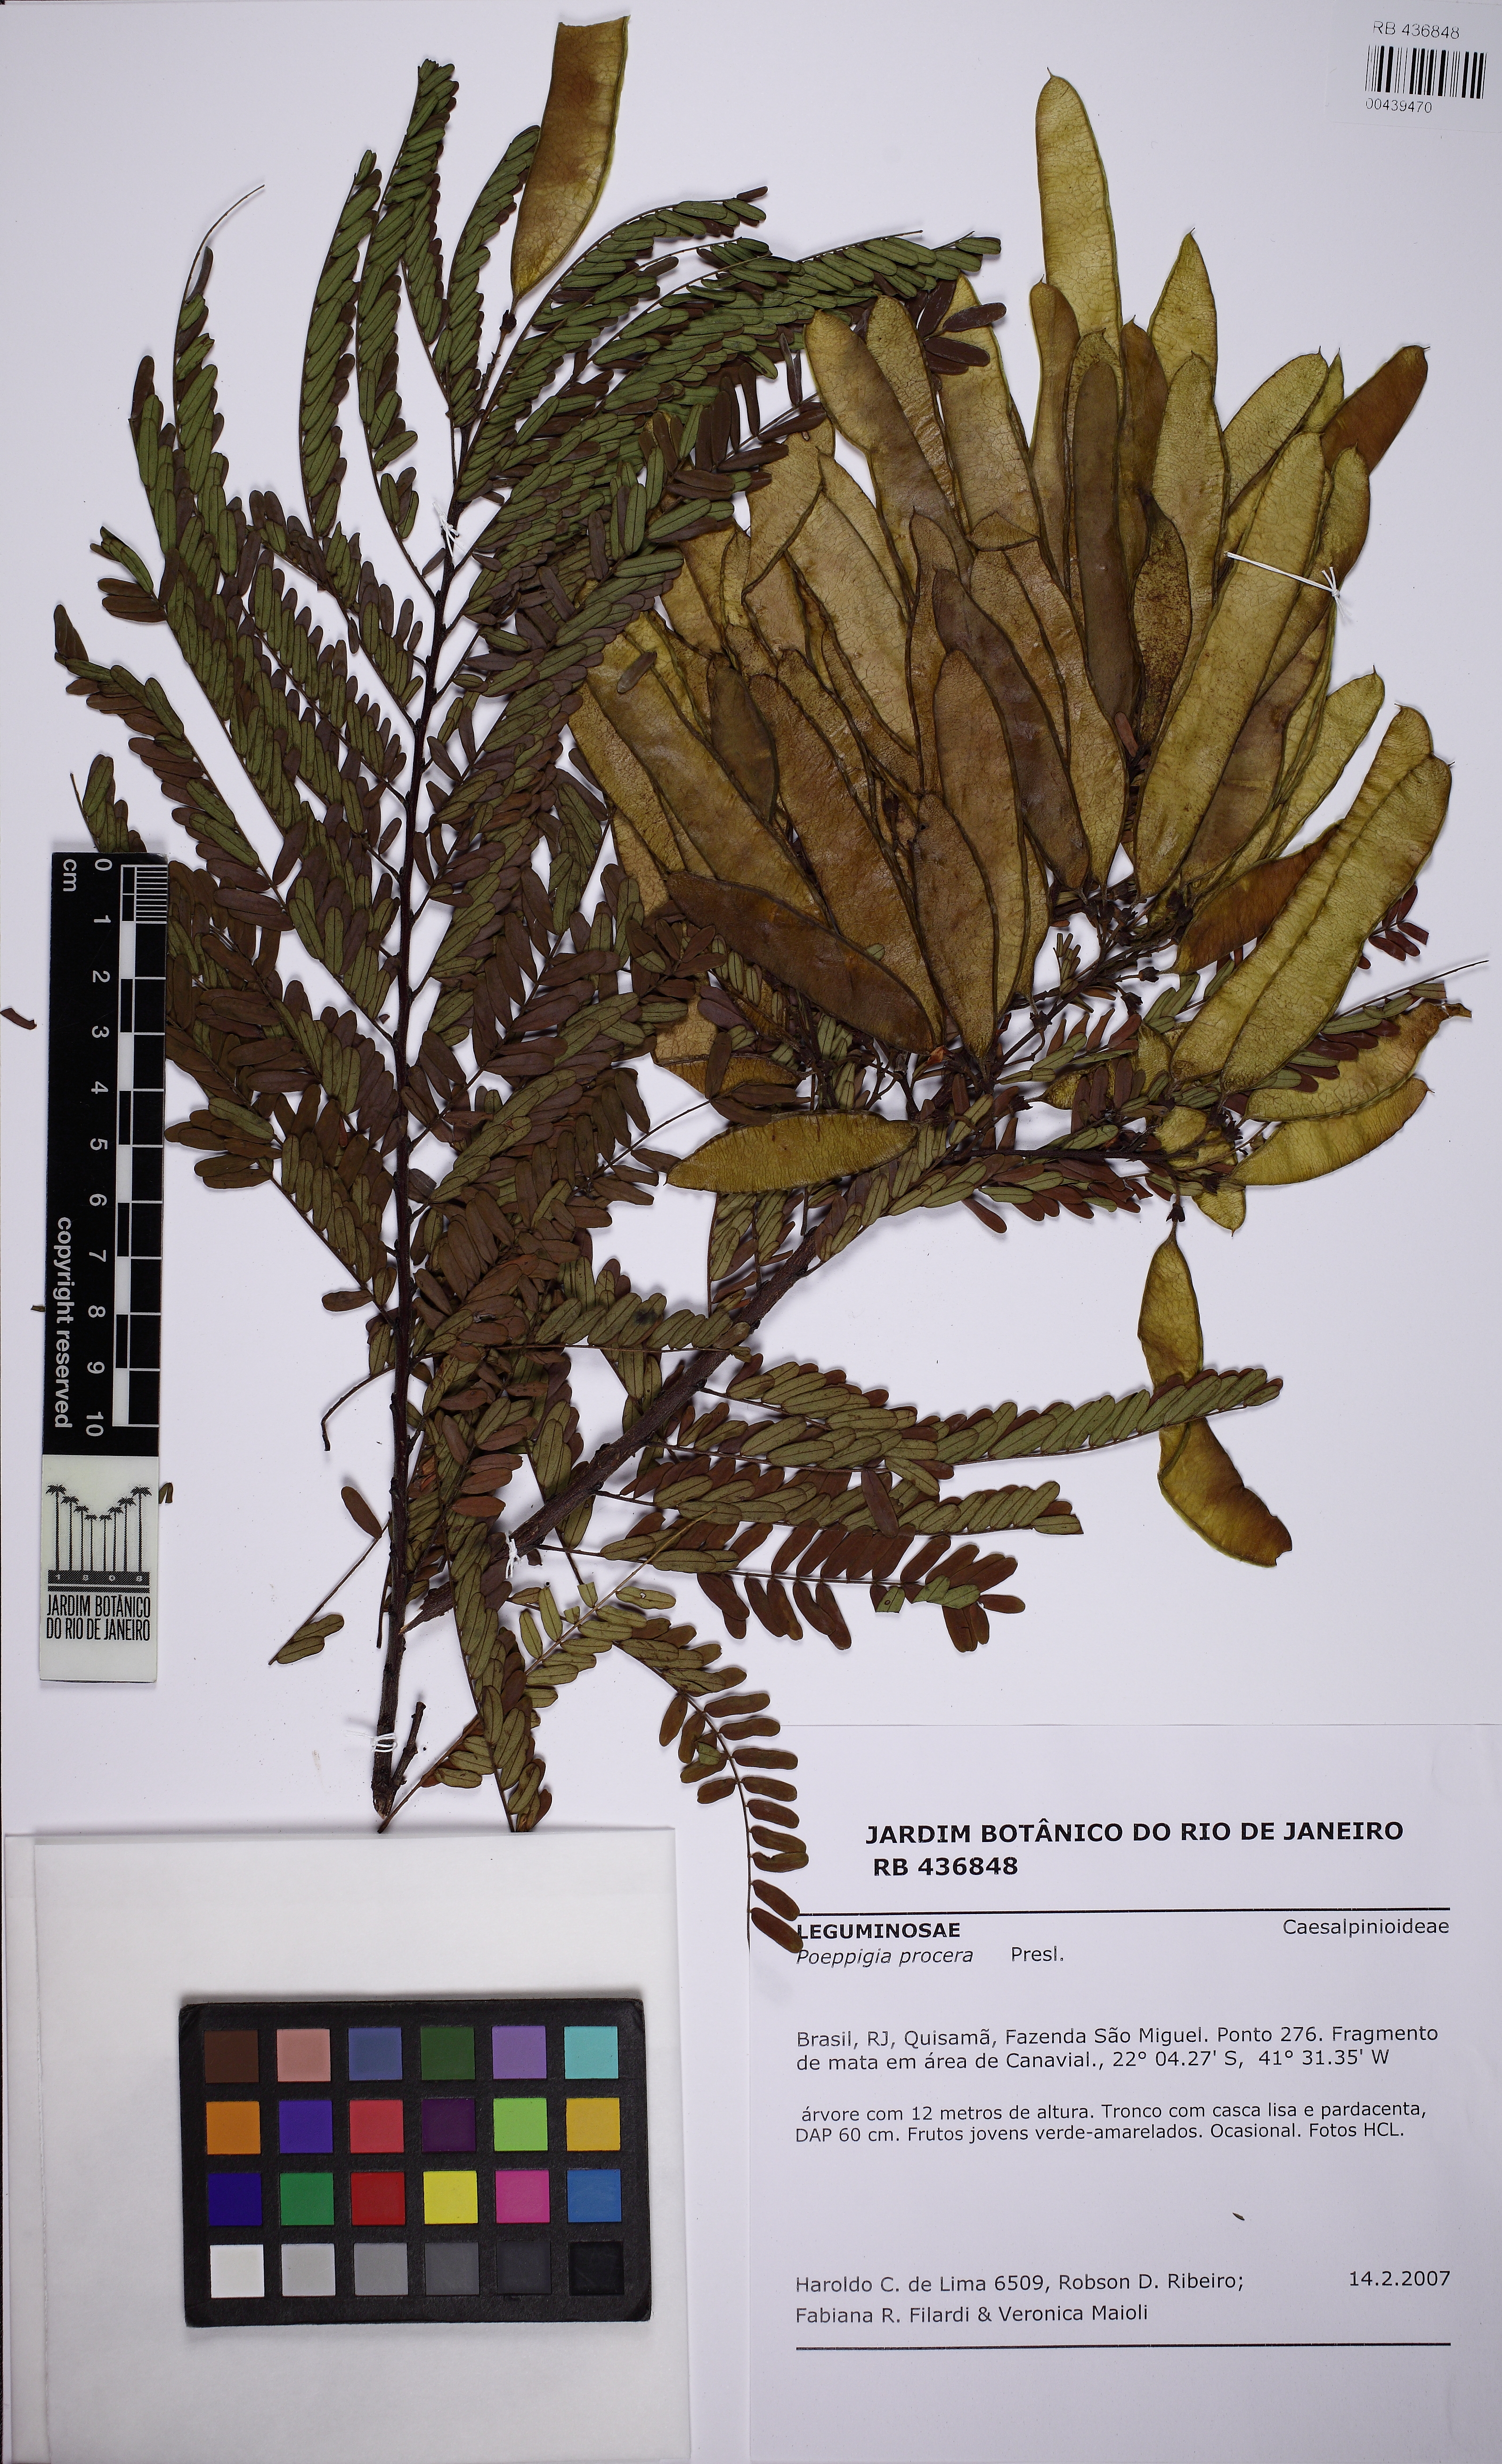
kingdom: Plantae
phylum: Tracheophyta
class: Magnoliopsida
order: Fabales
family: Fabaceae
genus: Poeppigia
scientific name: Poeppigia procera
